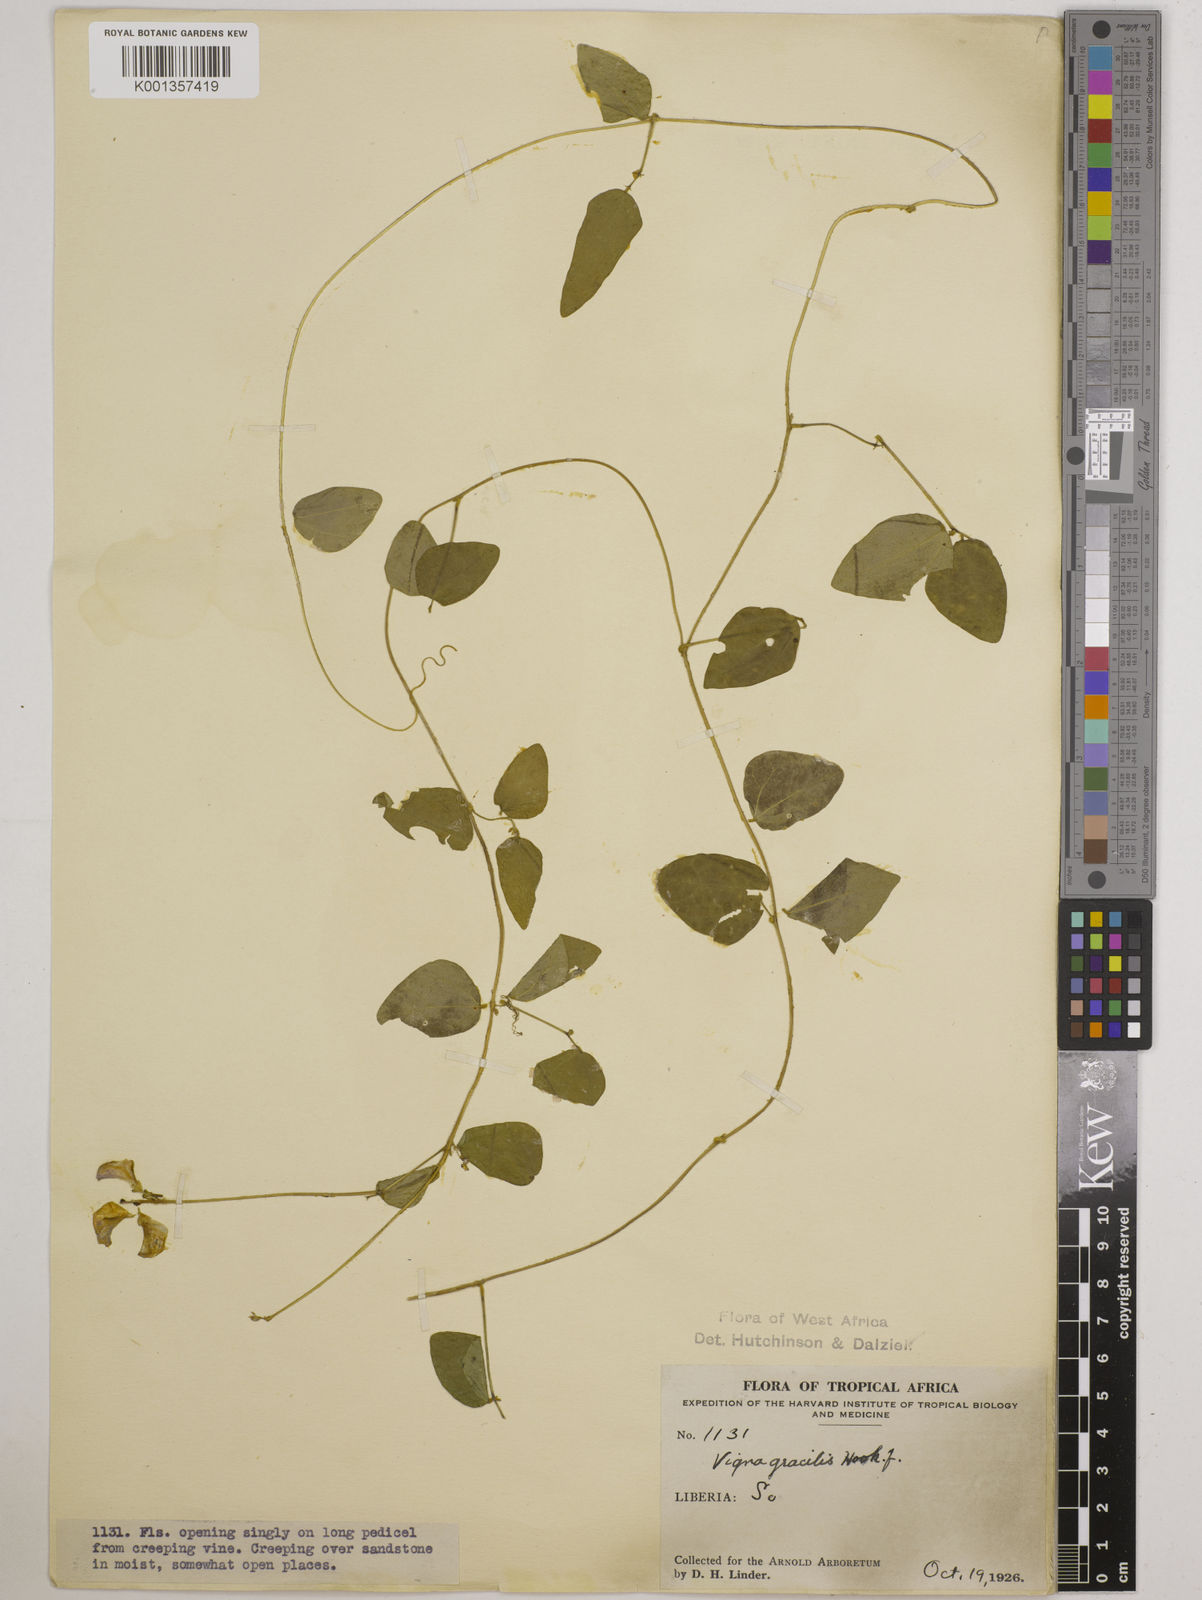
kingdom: Plantae
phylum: Tracheophyta
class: Magnoliopsida
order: Fabales
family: Fabaceae
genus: Vigna
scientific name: Vigna gracilis
